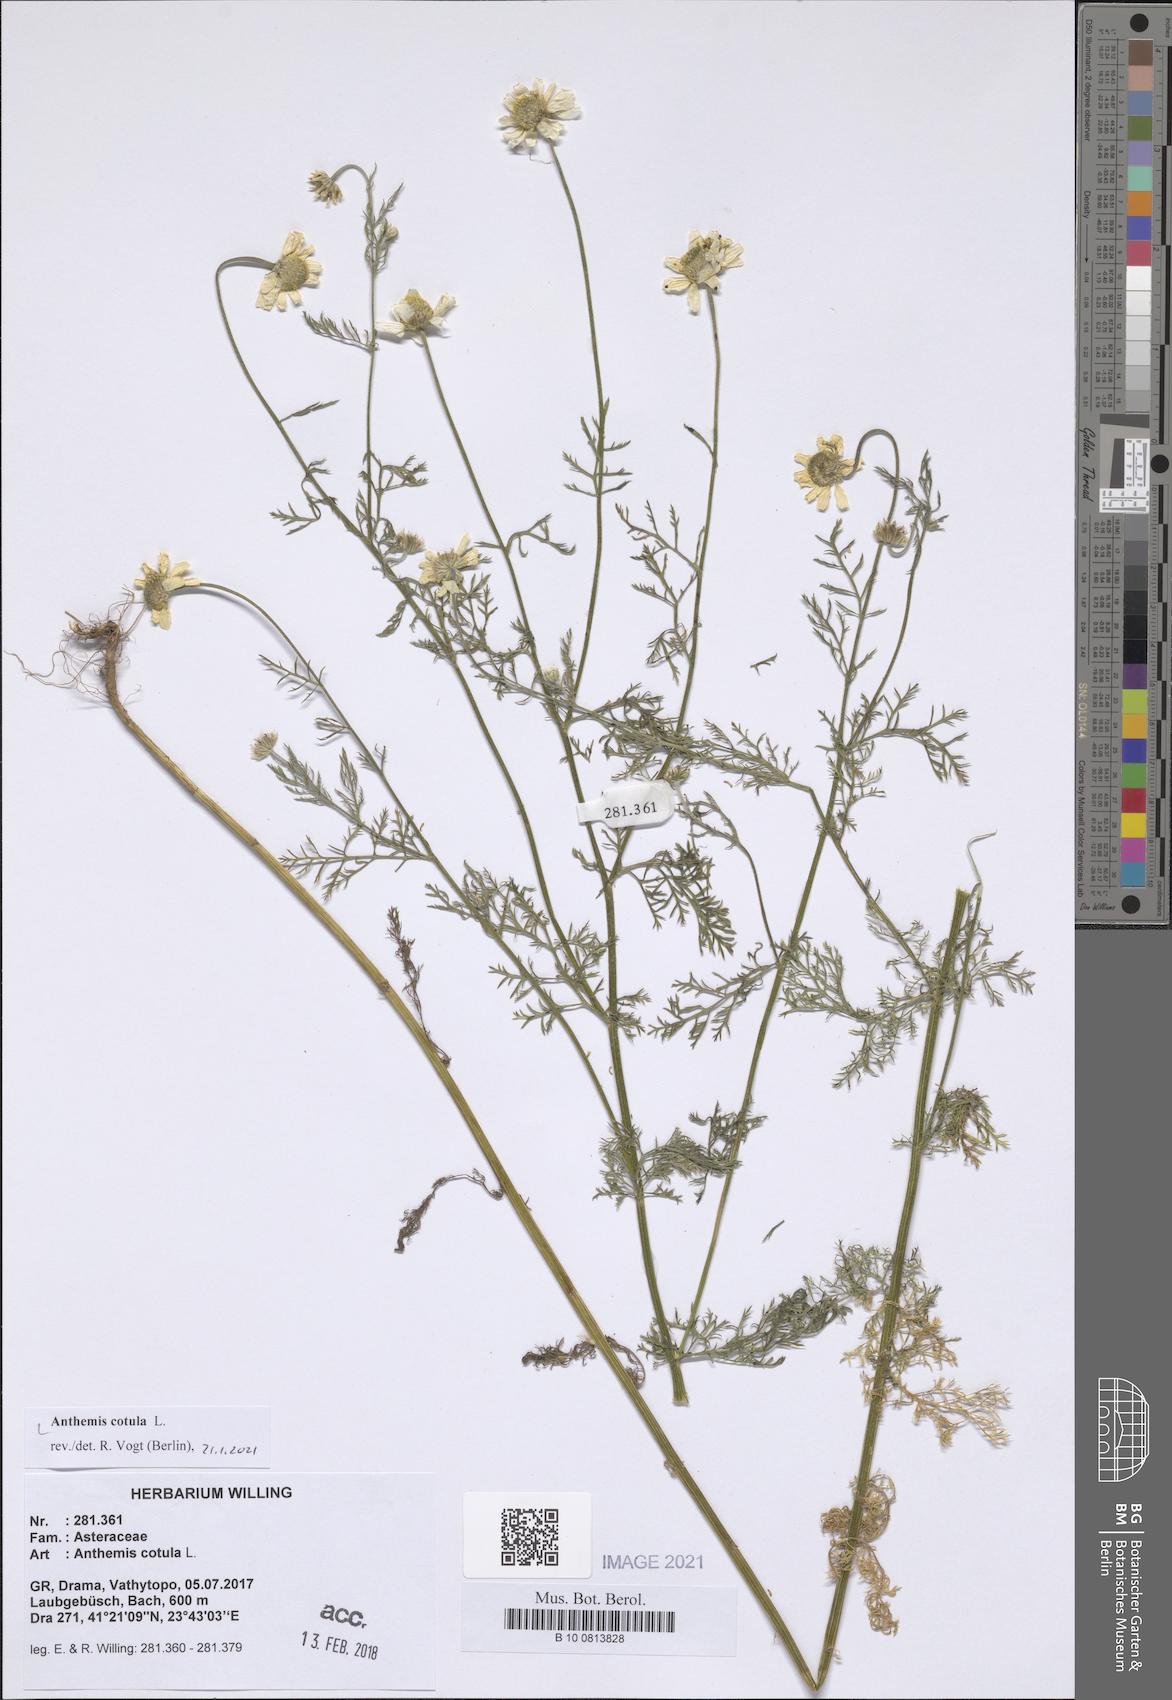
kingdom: Plantae
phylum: Tracheophyta
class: Magnoliopsida
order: Asterales
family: Asteraceae
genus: Anthemis
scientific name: Anthemis cotula
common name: Stinking chamomile
